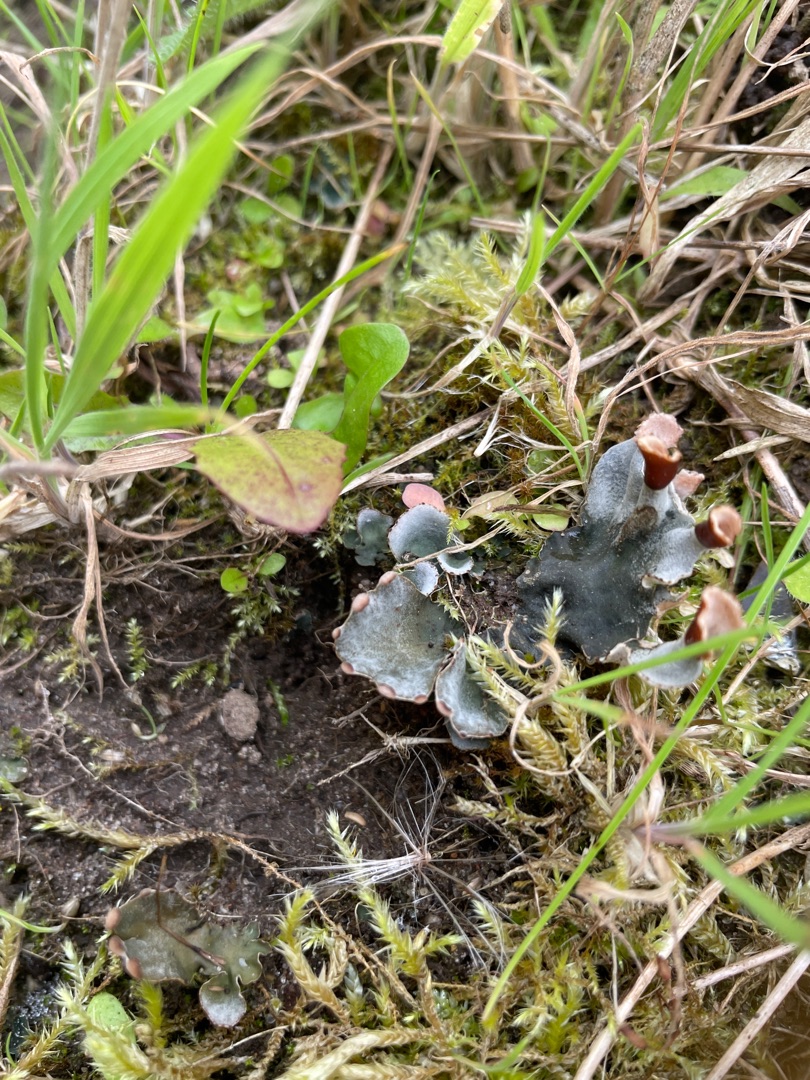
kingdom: Fungi
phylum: Ascomycota
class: Lecanoromycetes
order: Peltigerales
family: Peltigeraceae
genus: Peltigera
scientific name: Peltigera didactyla
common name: Liden skjoldlav
